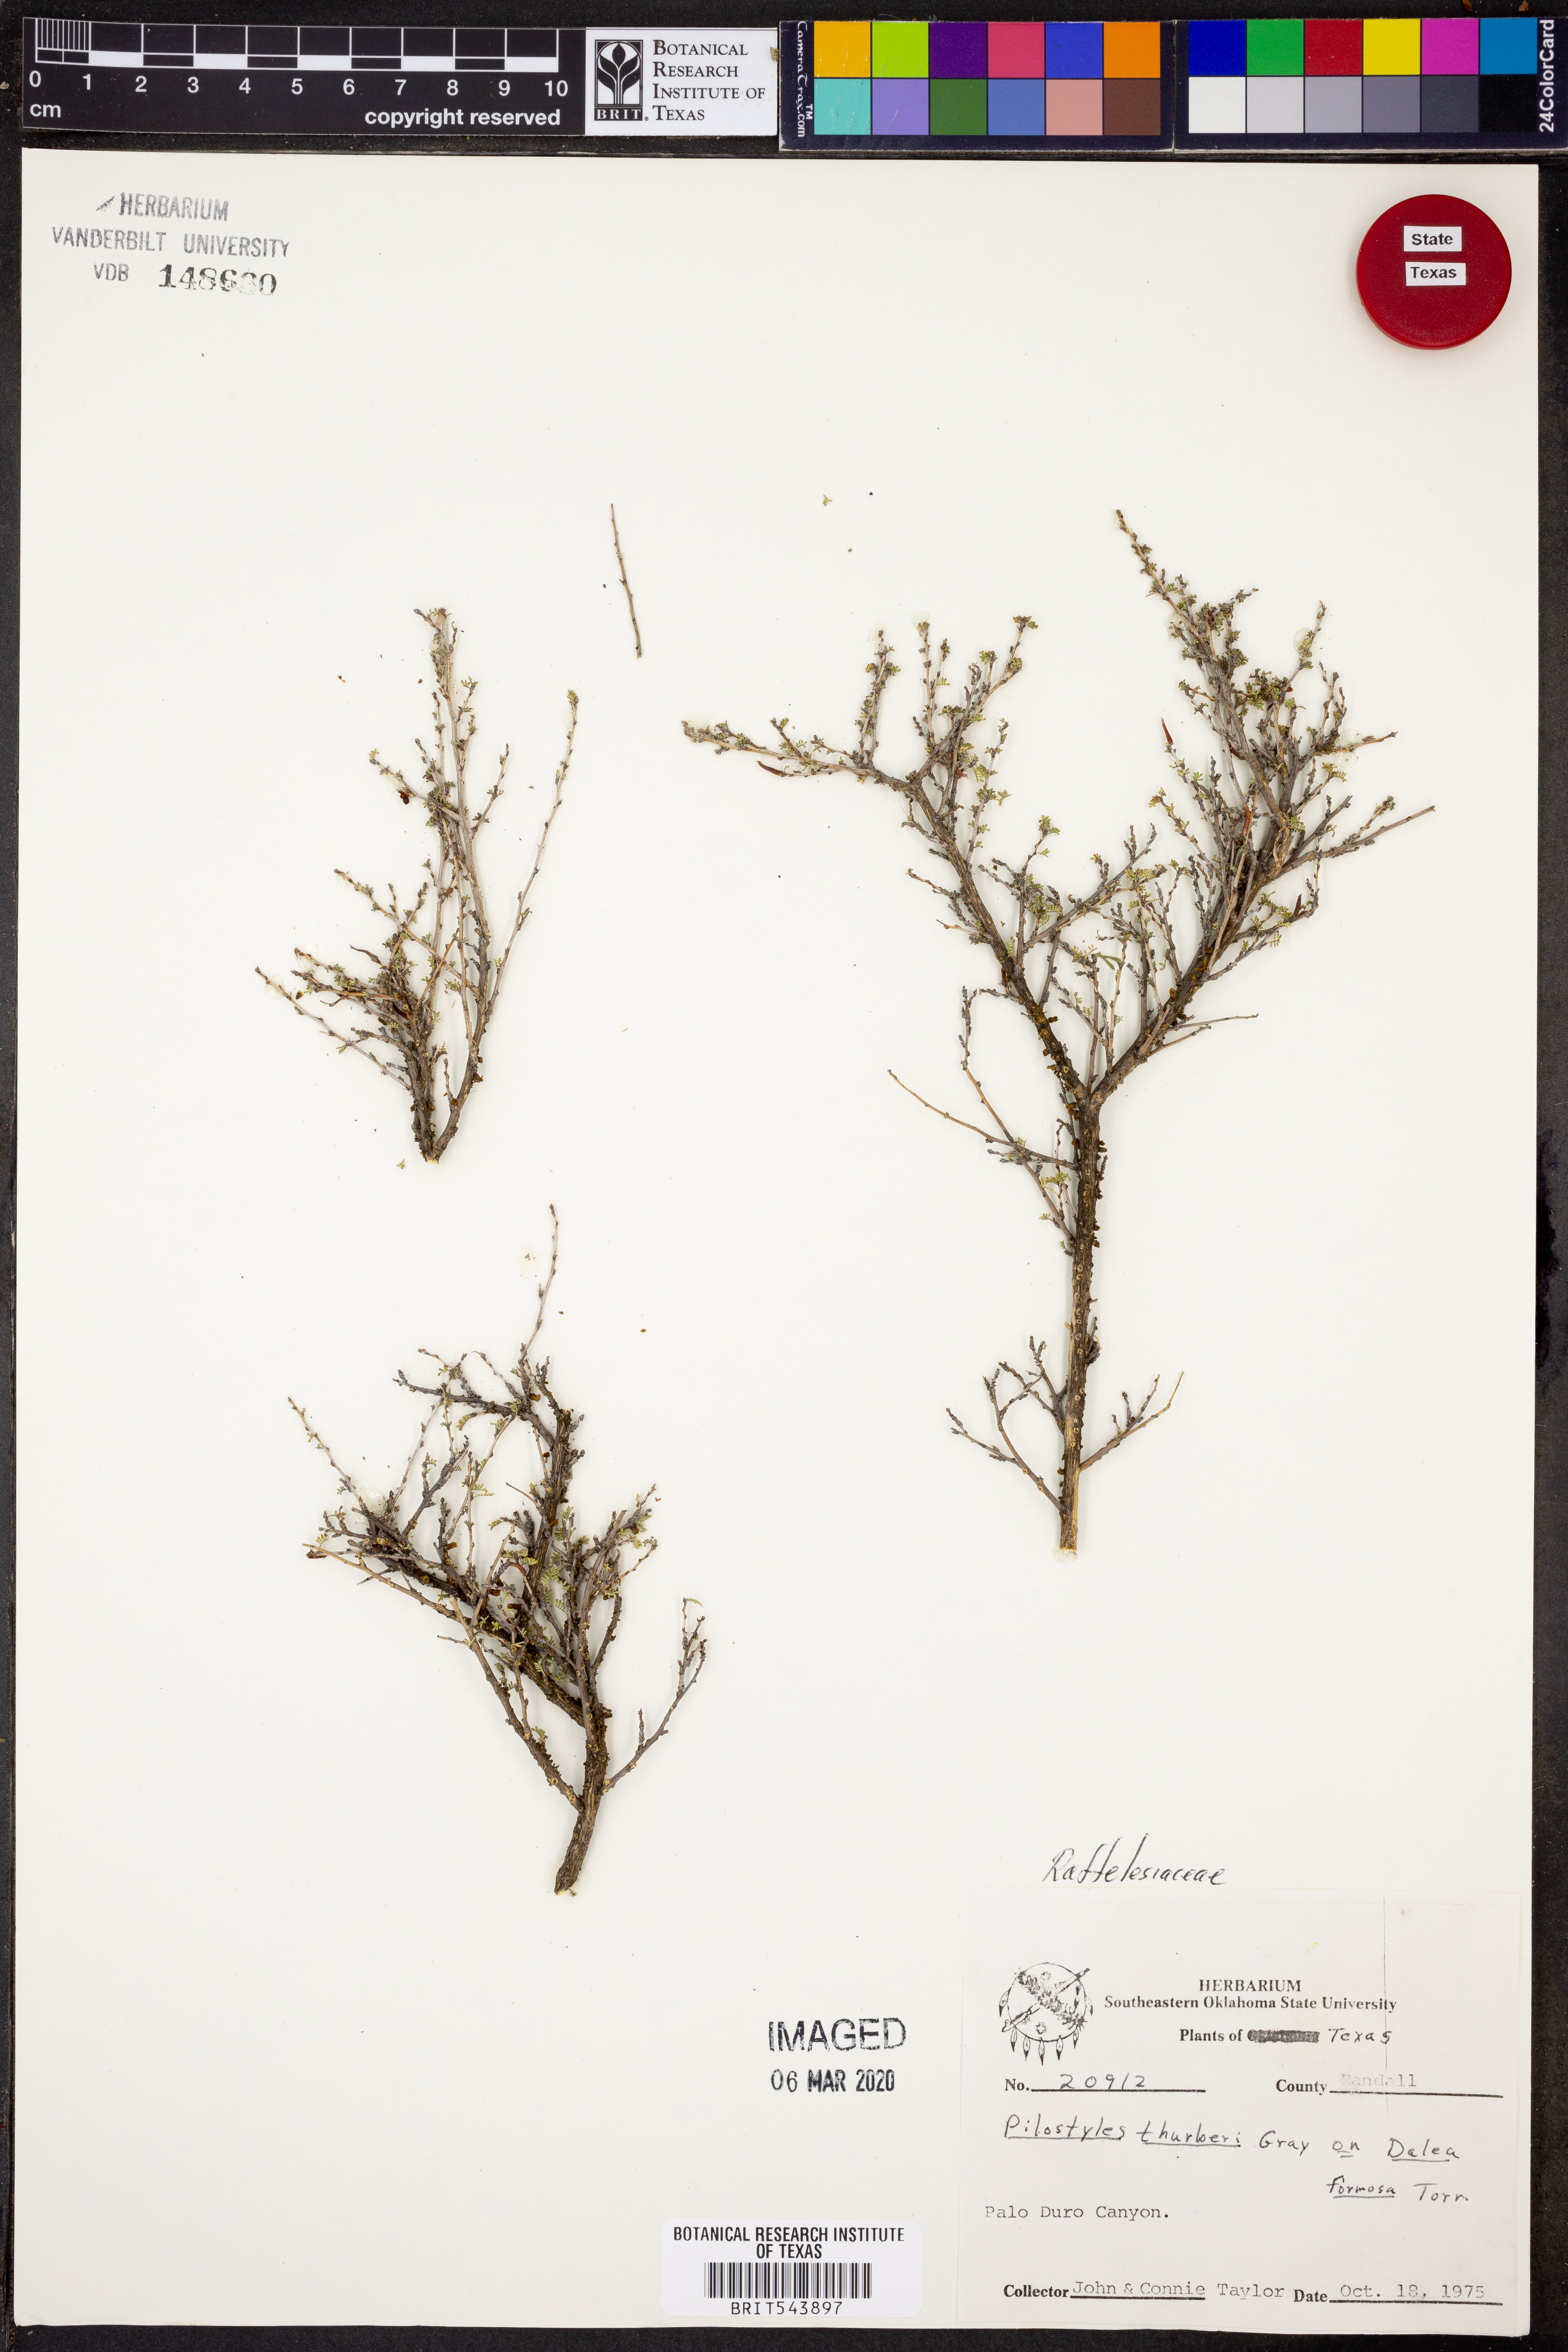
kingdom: Plantae
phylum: Tracheophyta
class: Magnoliopsida
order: Cucurbitales
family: Apodanthaceae
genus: Pilostyles
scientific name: Pilostyles thurberi
